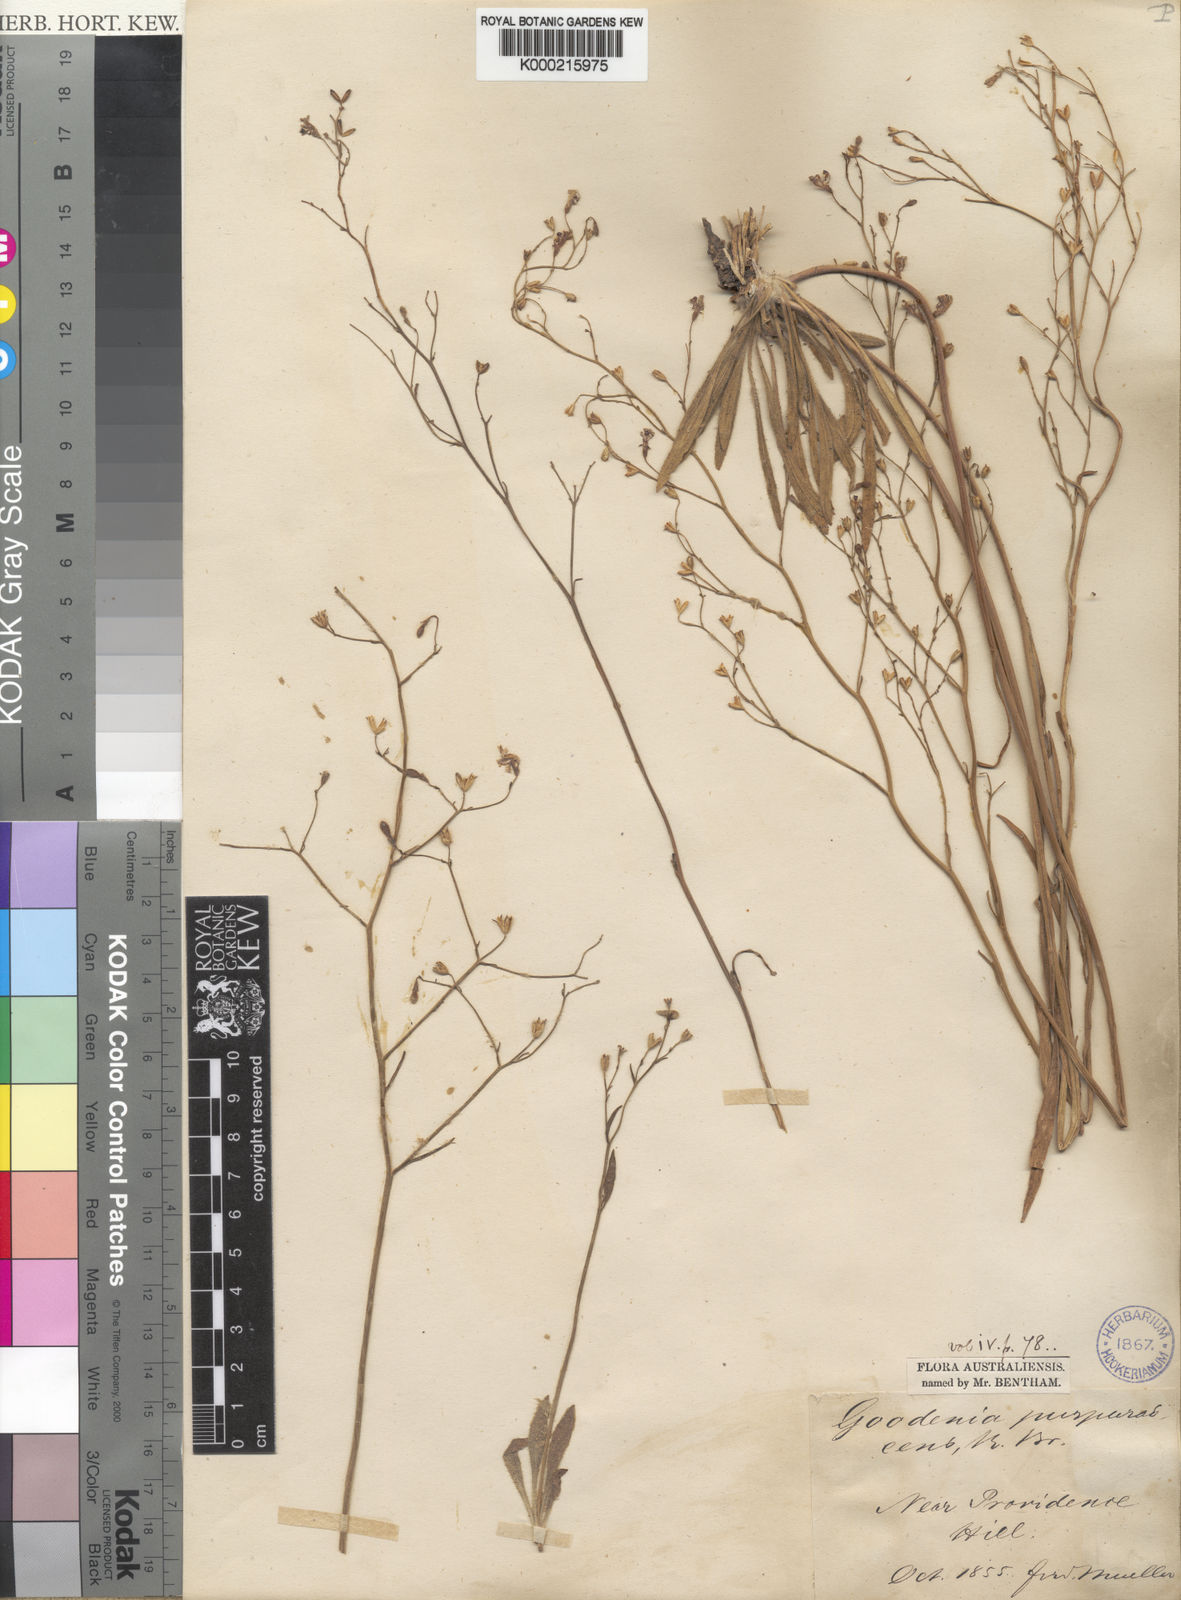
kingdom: Plantae
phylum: Tracheophyta
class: Magnoliopsida
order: Asterales
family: Goodeniaceae
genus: Goodenia
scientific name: Goodenia purpurascens
